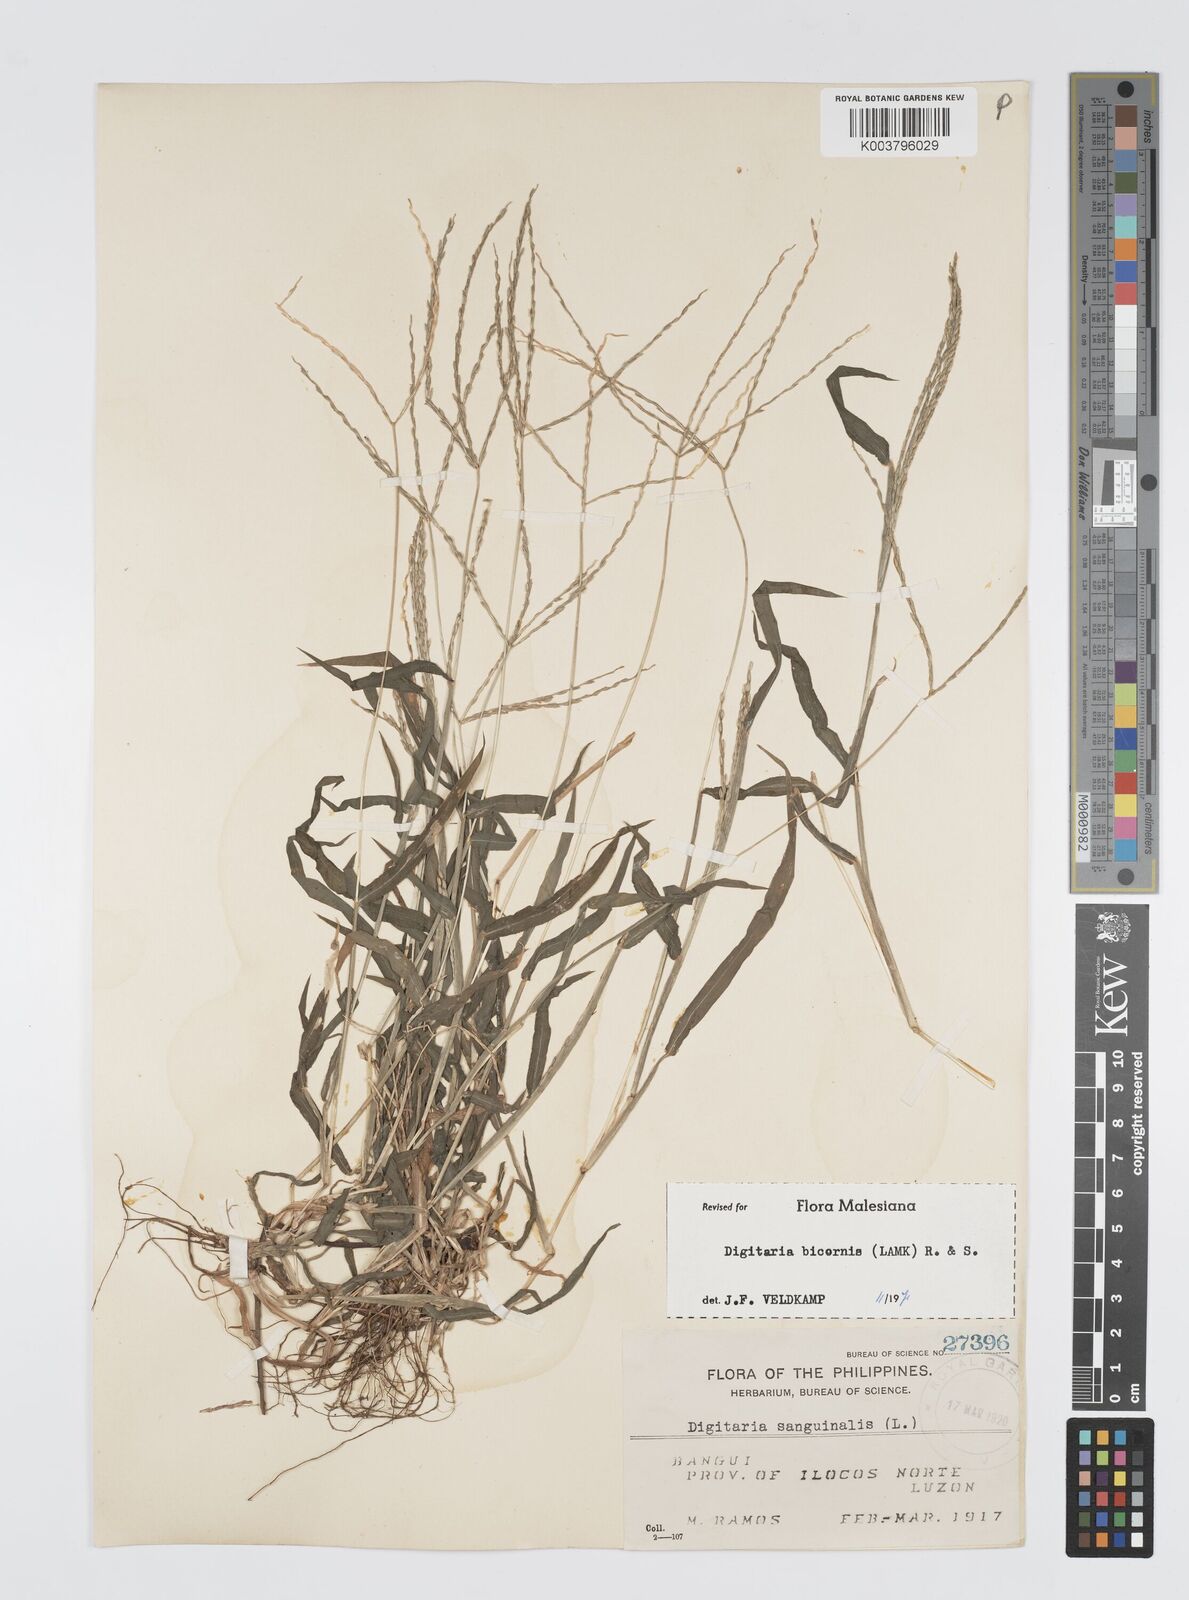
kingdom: Plantae
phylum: Tracheophyta
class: Liliopsida
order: Poales
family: Poaceae
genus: Digitaria
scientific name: Digitaria ciliaris
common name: Tropical finger-grass
